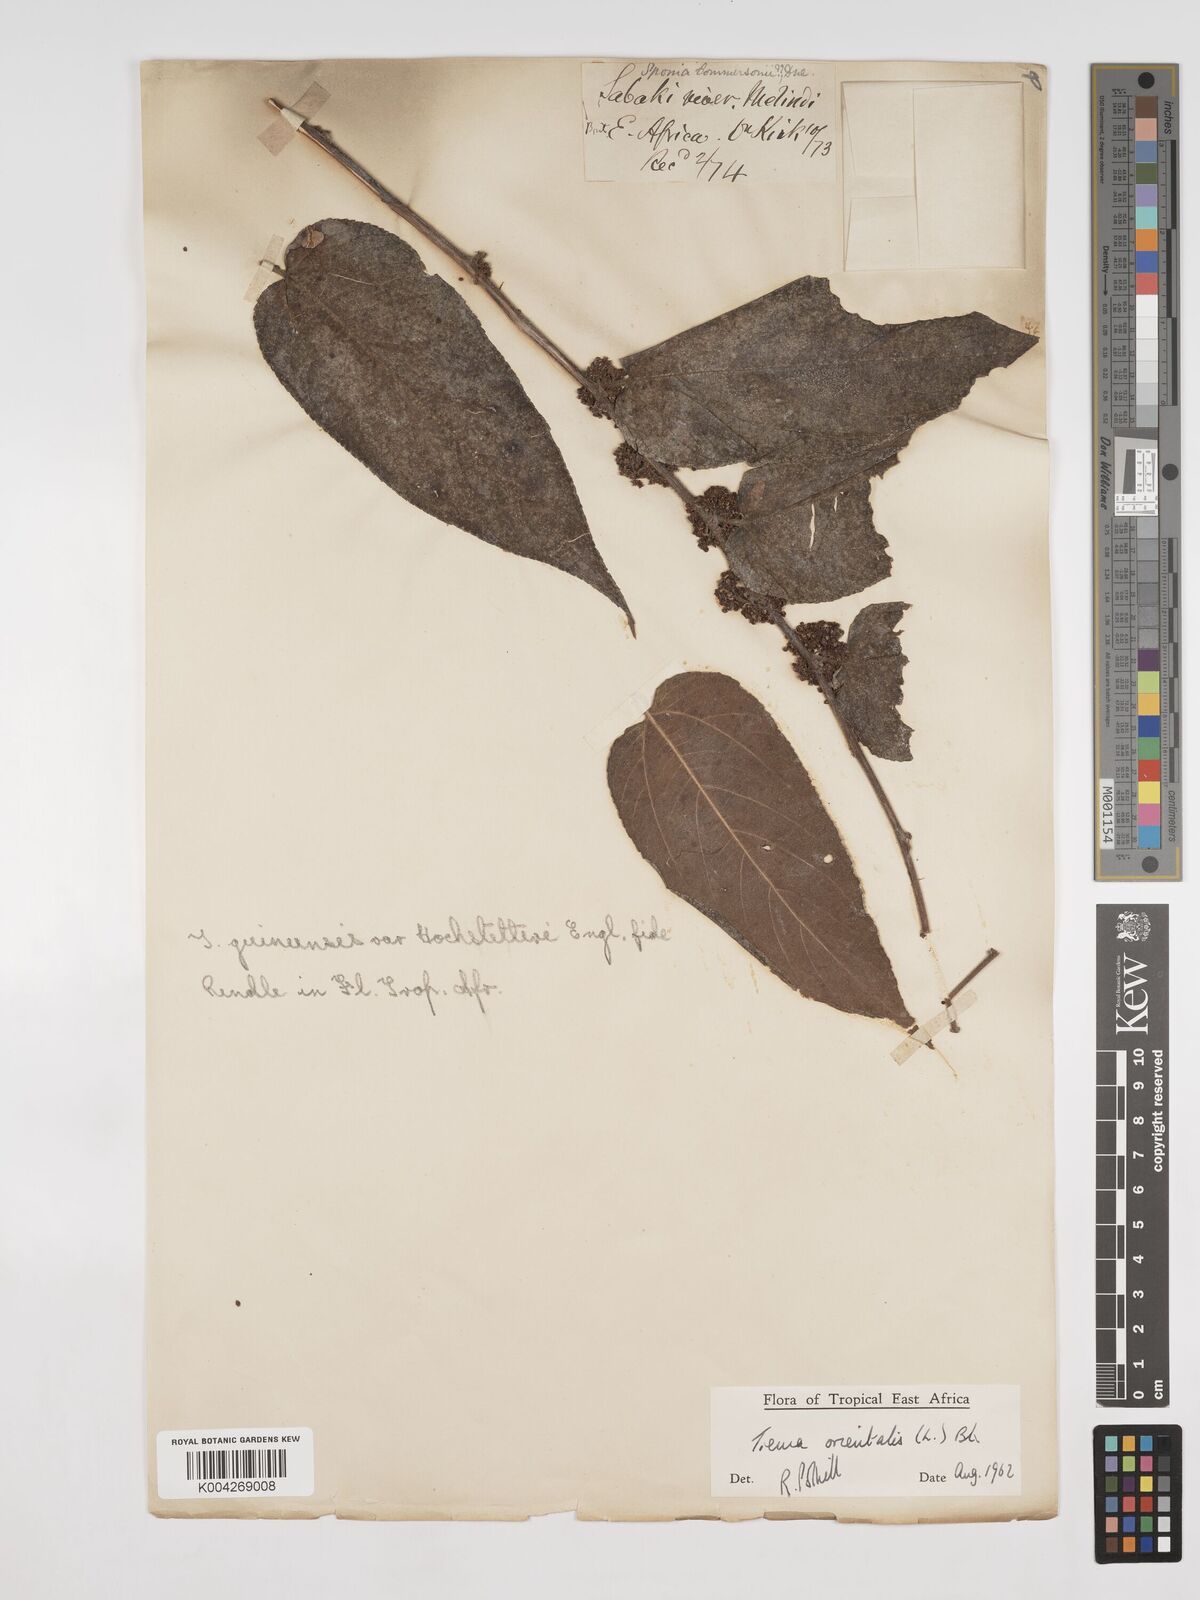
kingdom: Plantae
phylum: Tracheophyta
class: Magnoliopsida
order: Rosales
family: Cannabaceae
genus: Trema
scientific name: Trema orientale
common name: Indian charcoal tree
